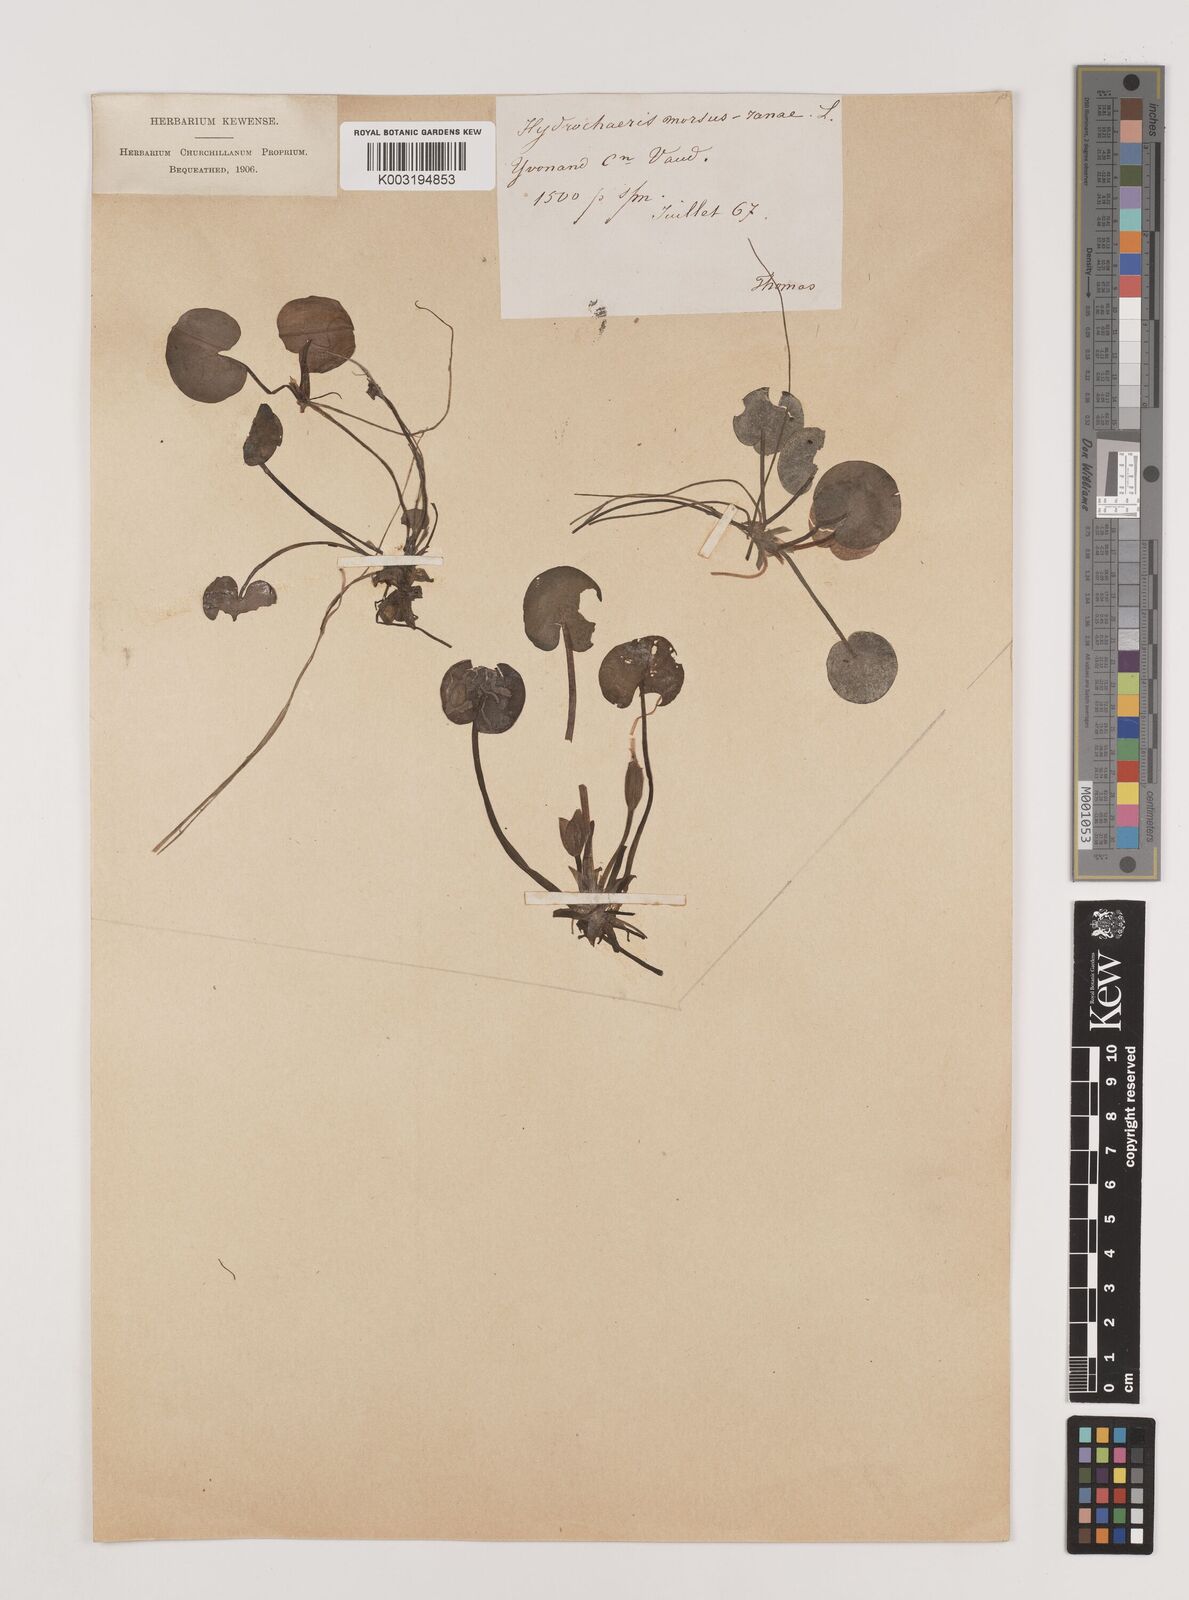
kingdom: Plantae
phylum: Tracheophyta
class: Liliopsida
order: Alismatales
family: Hydrocharitaceae
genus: Hydrocharis
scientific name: Hydrocharis morsus-ranae
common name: Frogbit
